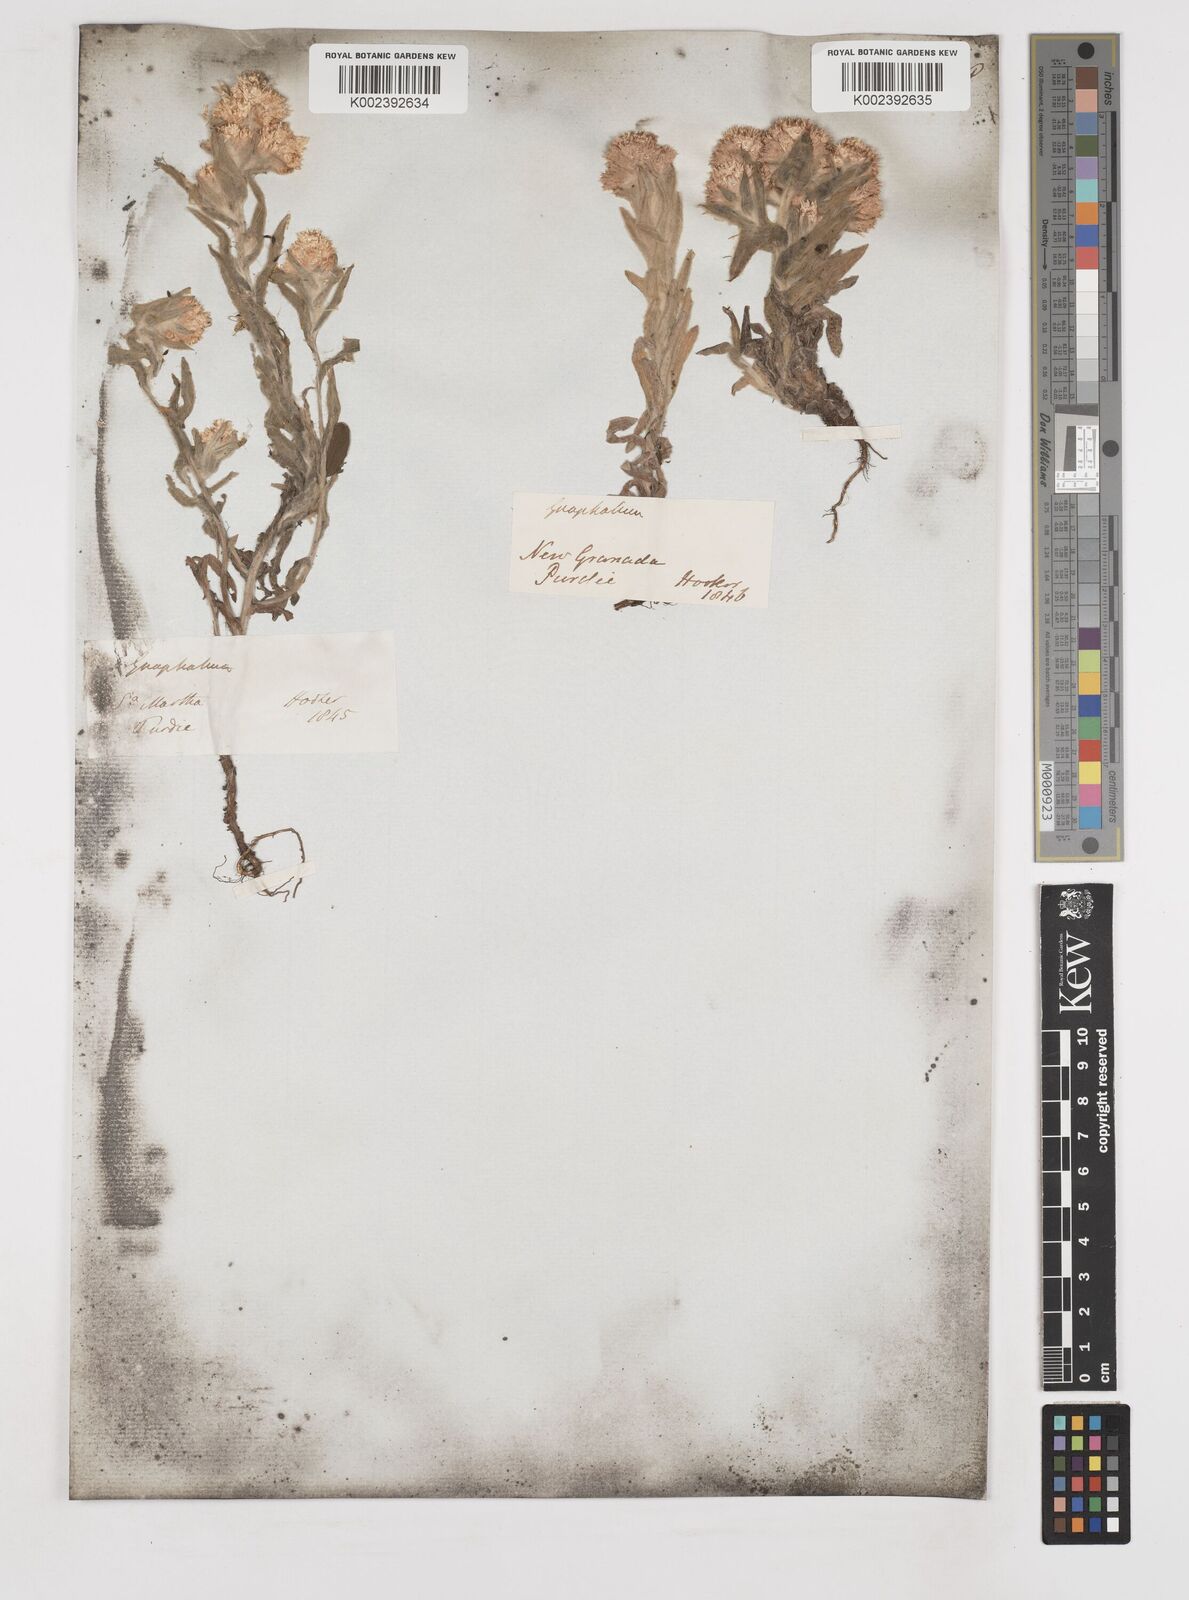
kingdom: Plantae
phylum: Tracheophyta
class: Magnoliopsida
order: Asterales
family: Asteraceae
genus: Gnaphalium
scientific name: Gnaphalium
